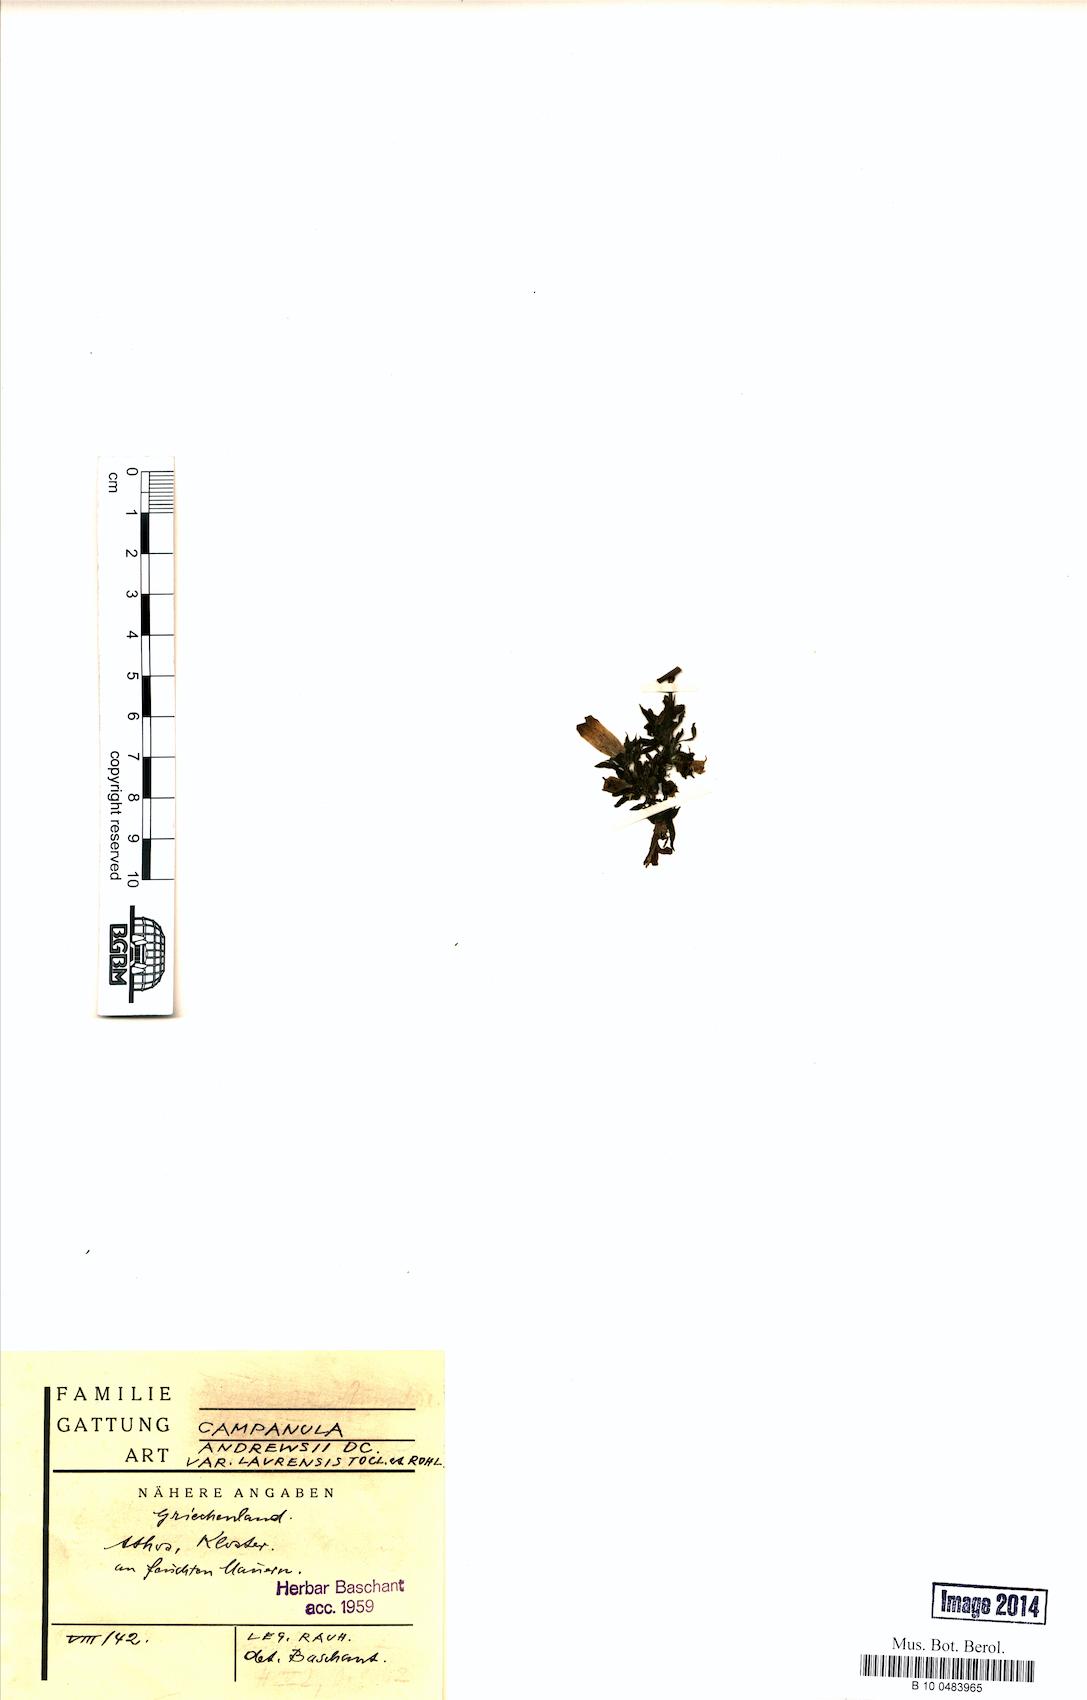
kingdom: Plantae
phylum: Tracheophyta
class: Magnoliopsida
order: Asterales
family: Campanulaceae
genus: Campanula
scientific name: Campanula lavrensis
